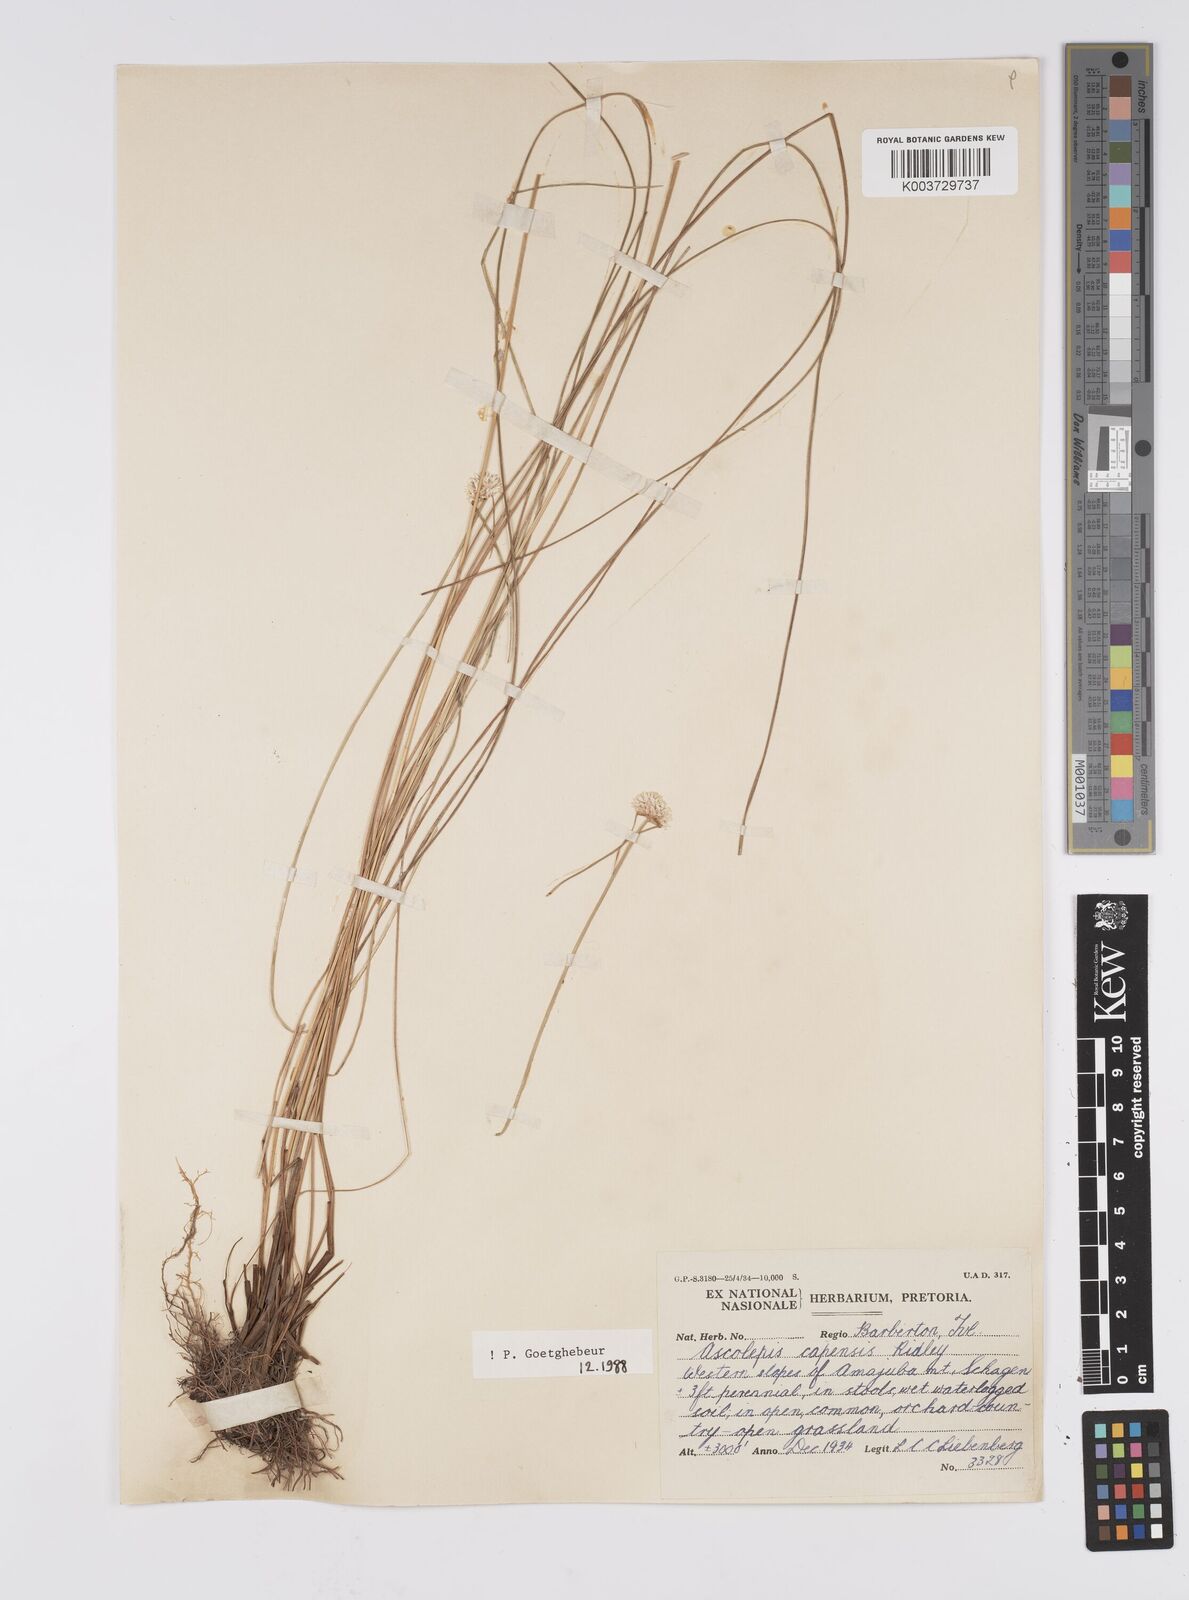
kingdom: Plantae
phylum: Tracheophyta
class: Liliopsida
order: Poales
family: Cyperaceae
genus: Cyperus
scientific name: Cyperus capensis
